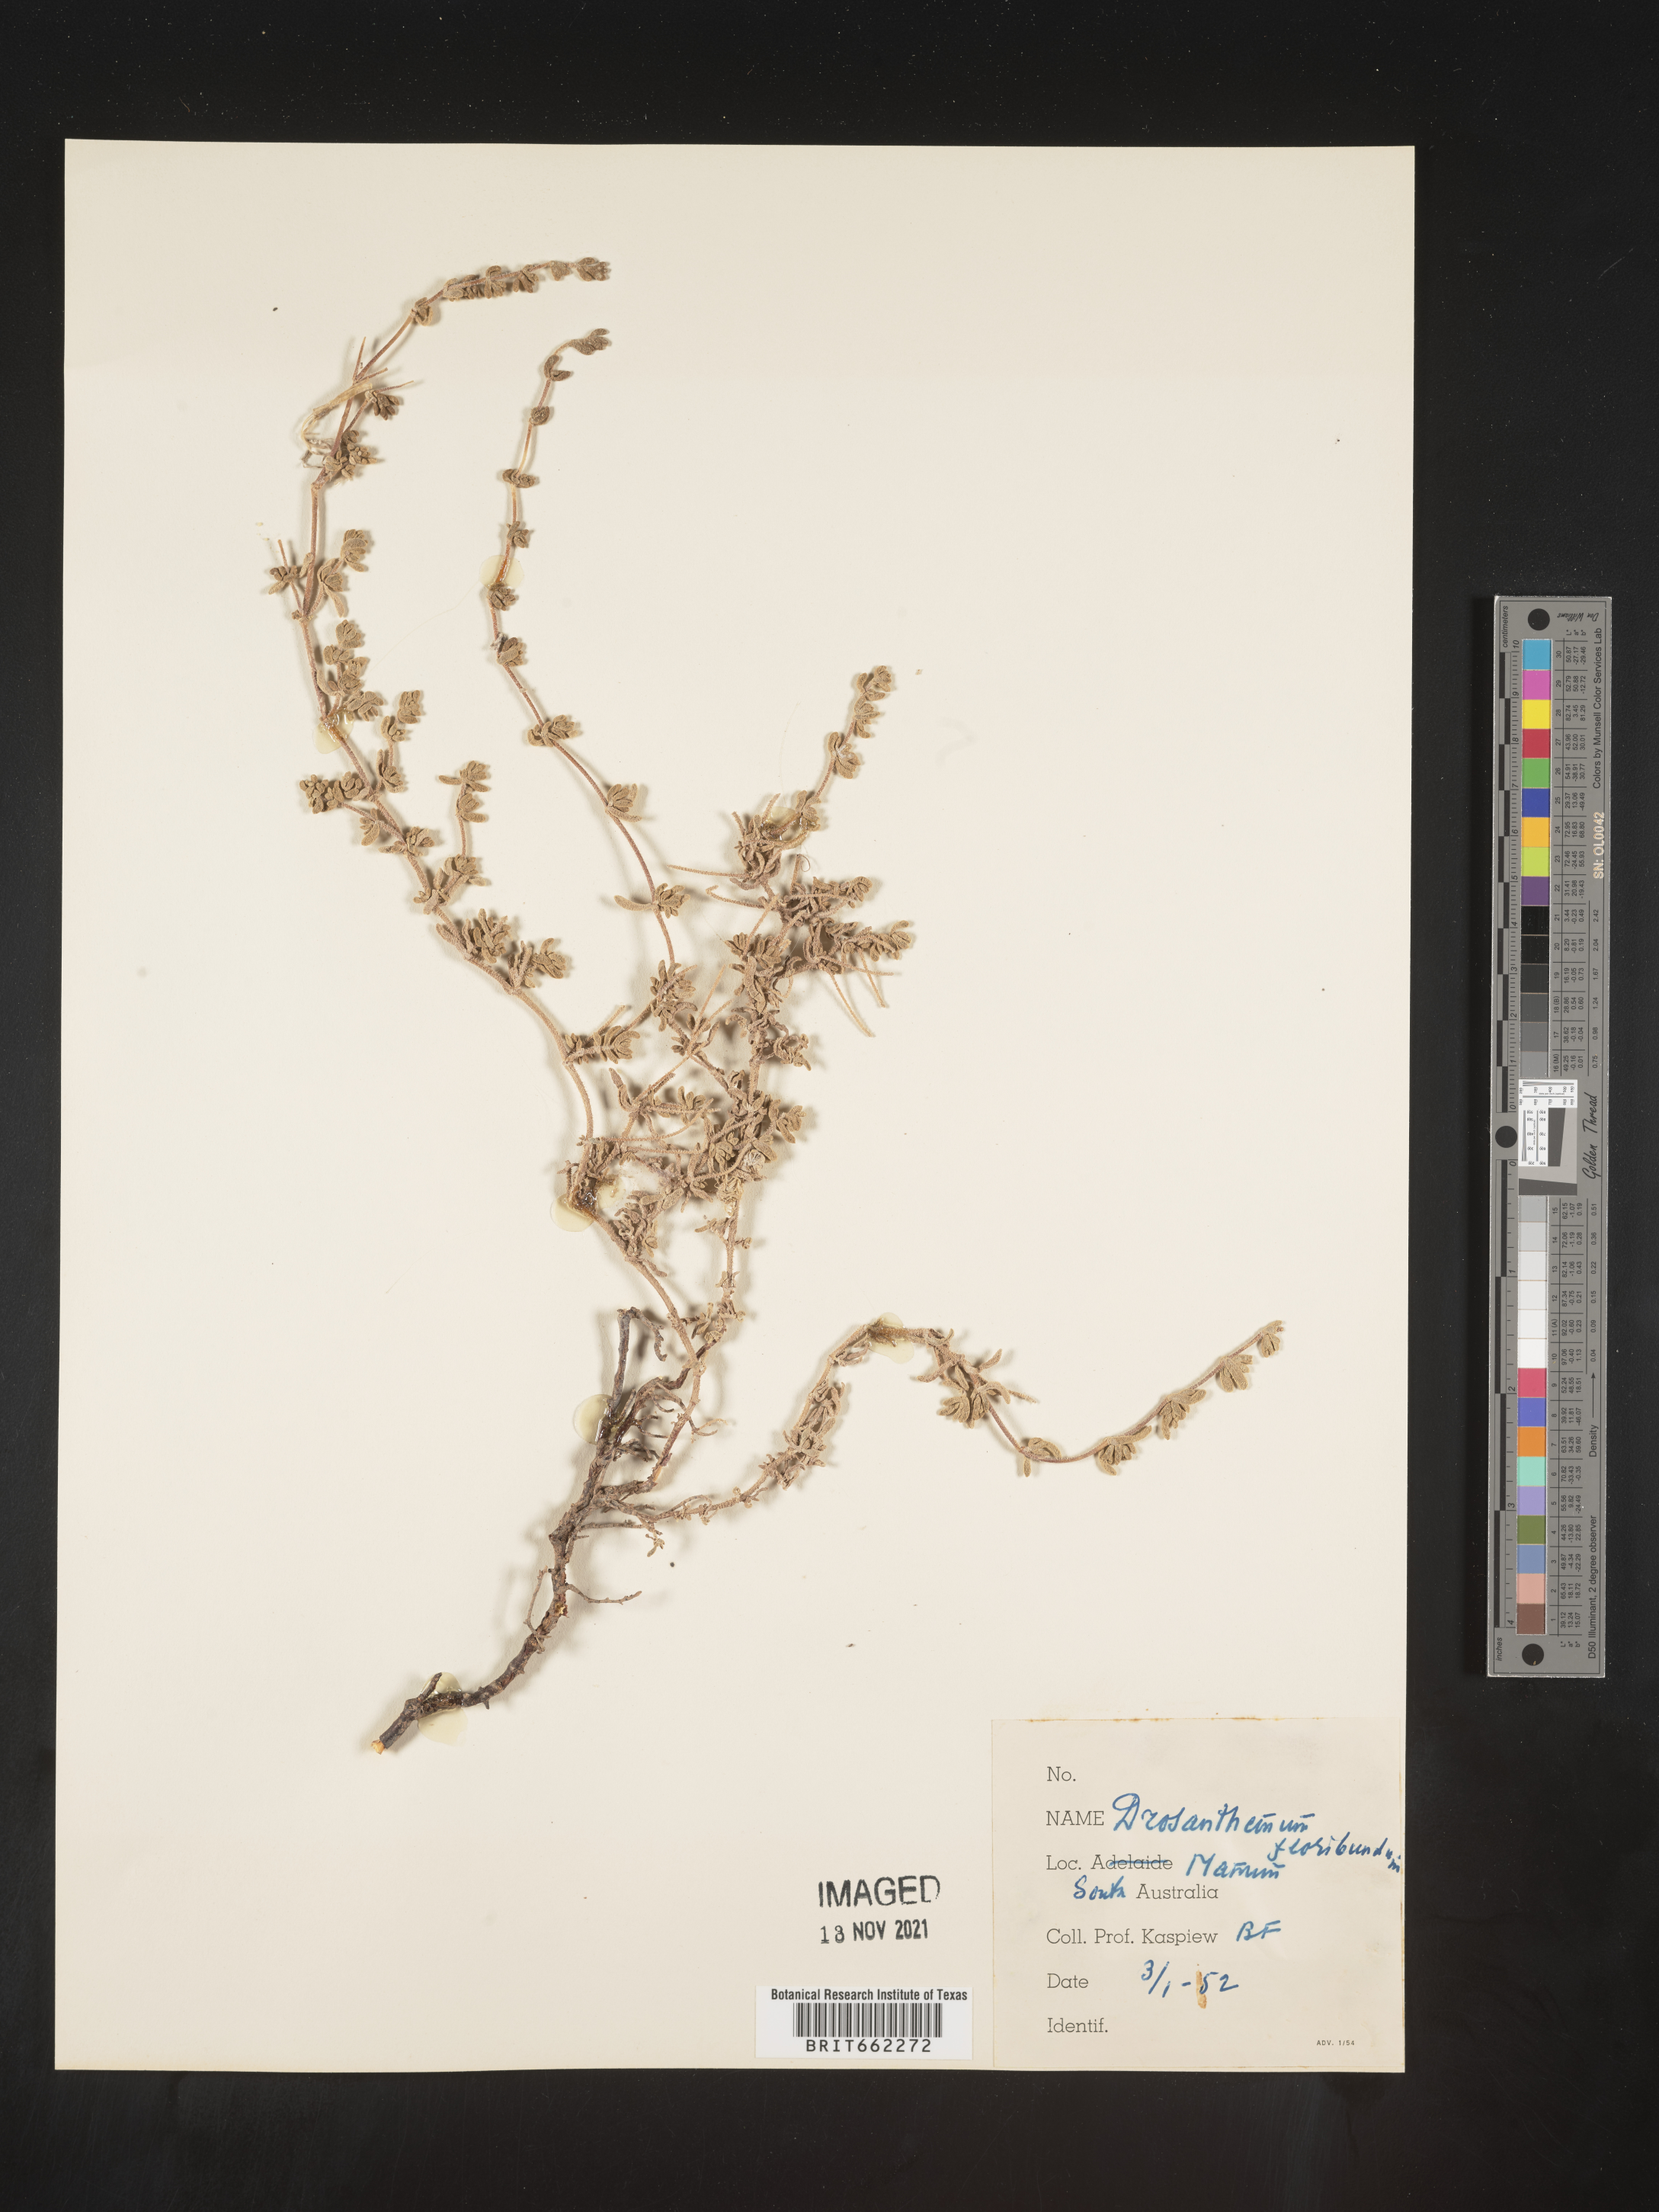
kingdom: Plantae
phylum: Tracheophyta
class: Magnoliopsida
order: Caryophyllales
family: Aizoaceae
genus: Drosanthemum
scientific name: Drosanthemum
